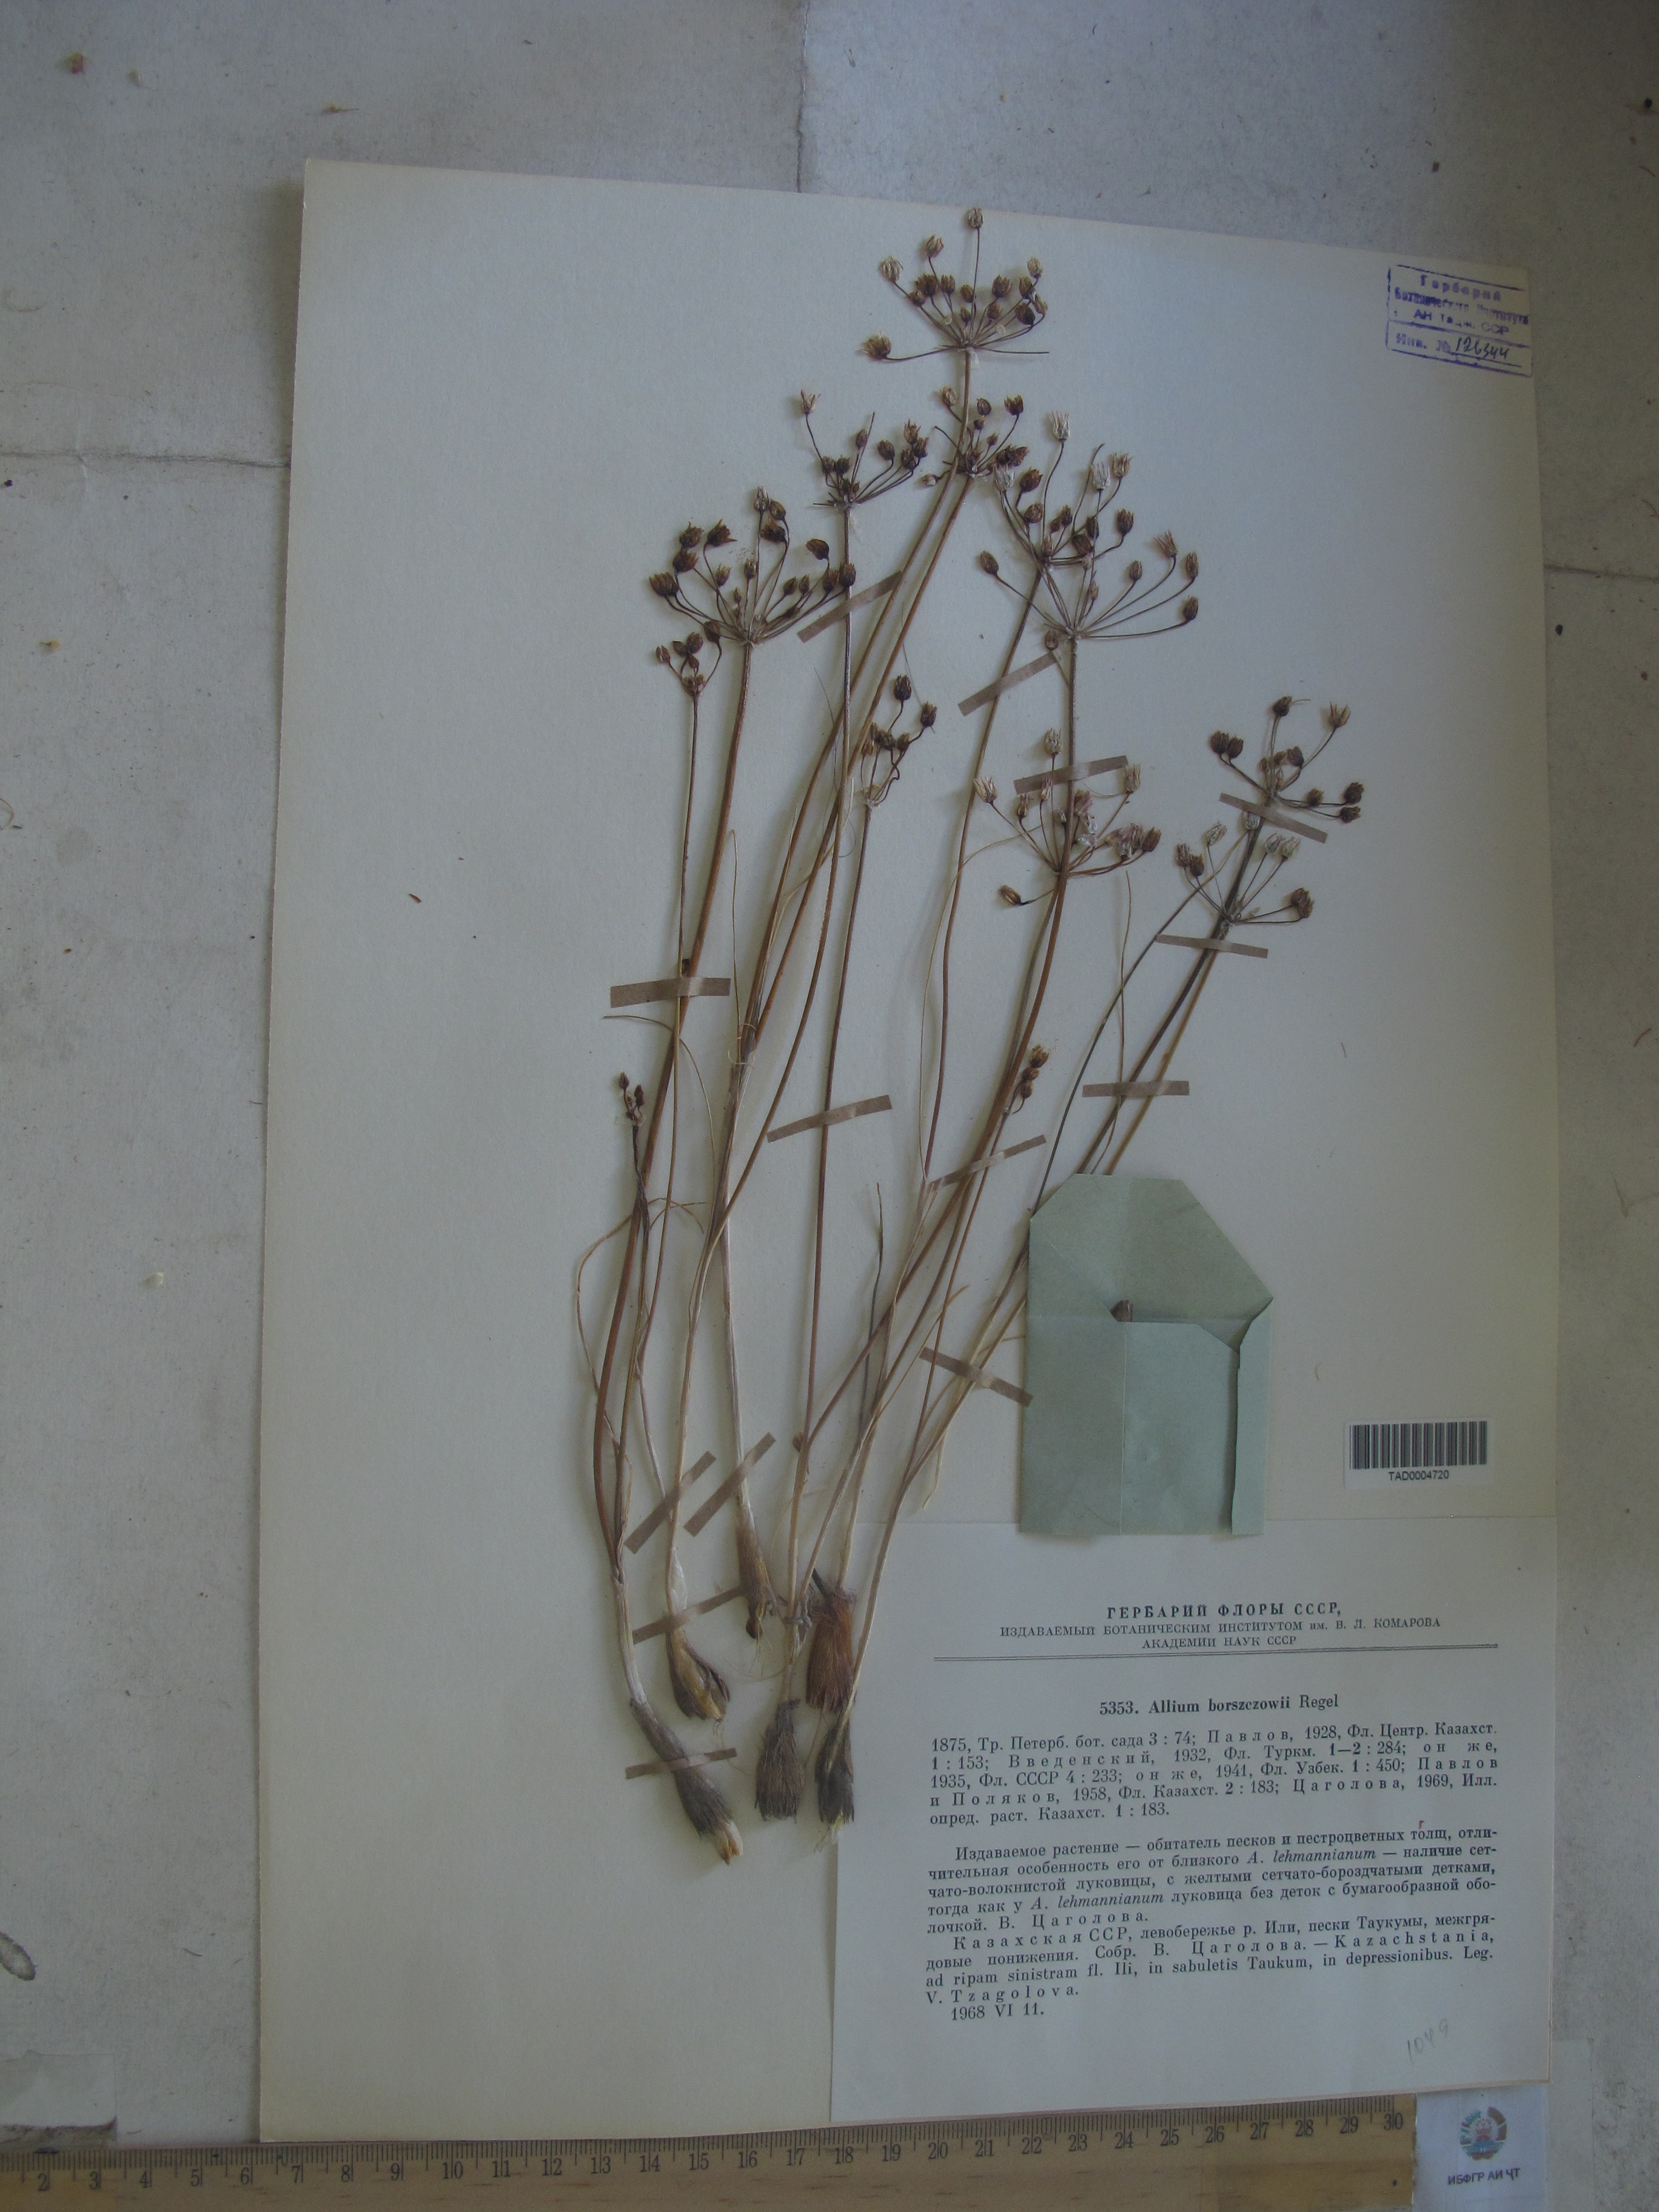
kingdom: Plantae
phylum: Tracheophyta
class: Liliopsida
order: Asparagales
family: Amaryllidaceae
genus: Allium
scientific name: Allium borszczowii
